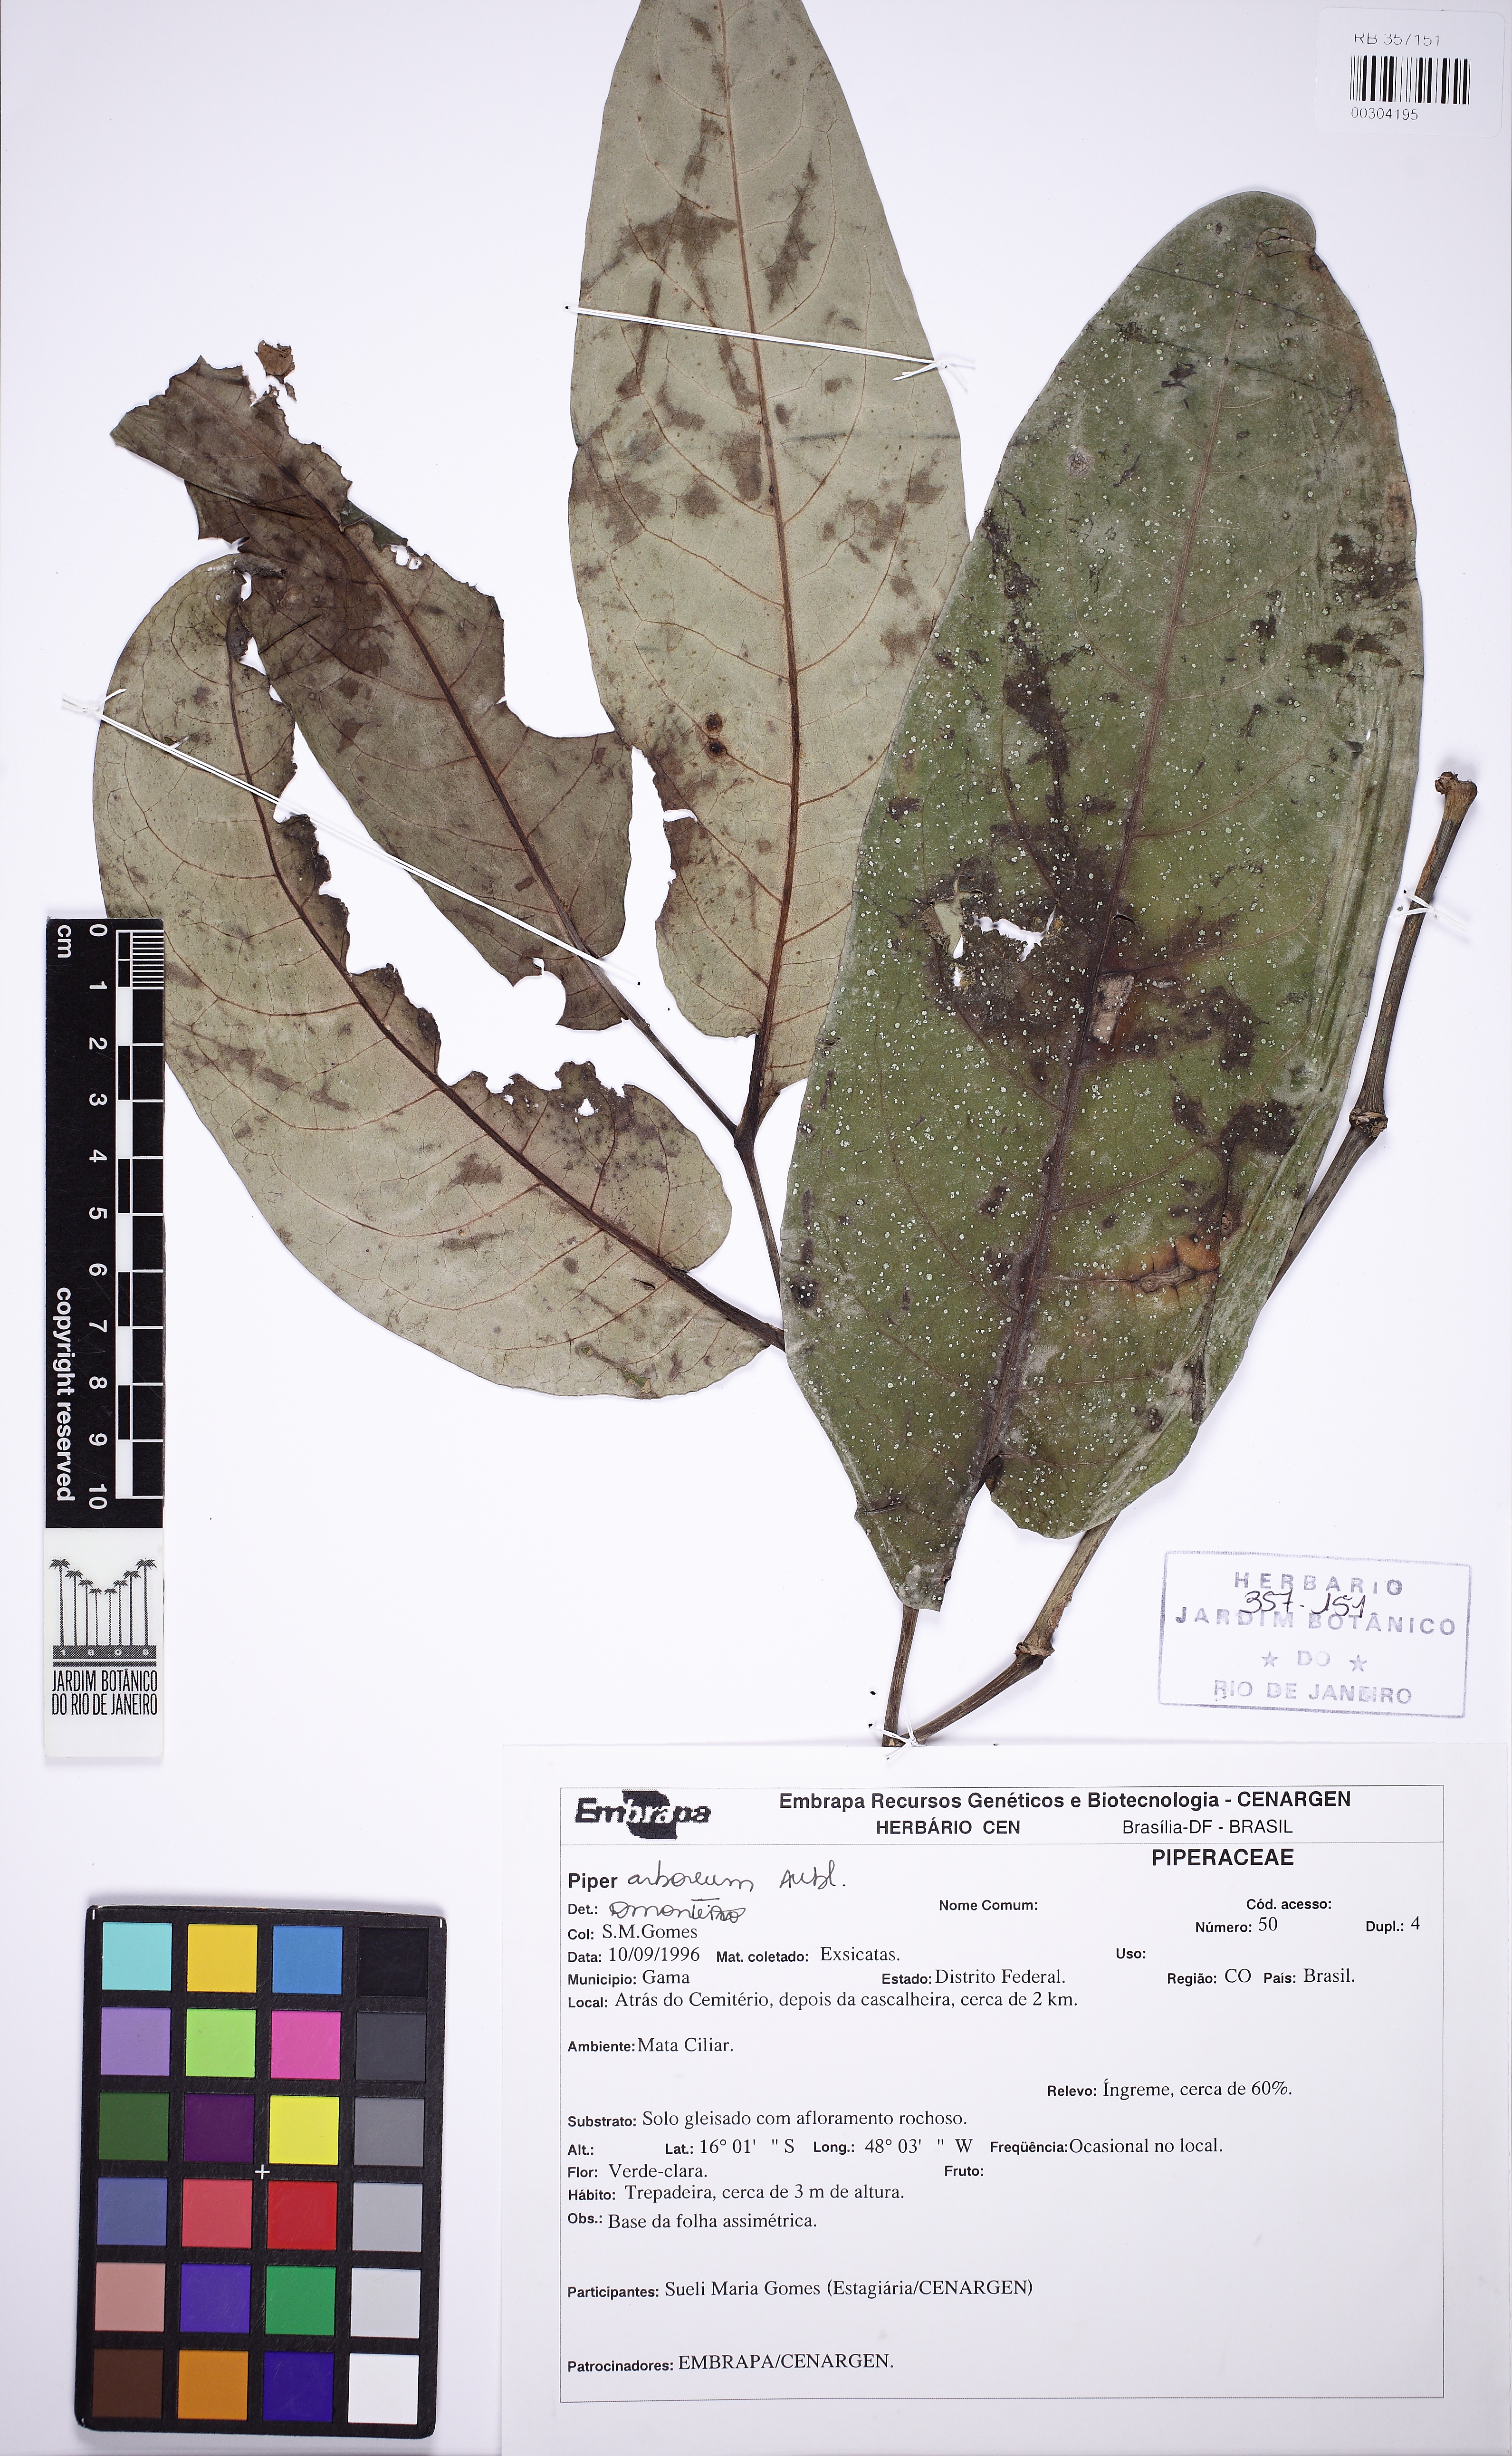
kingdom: Plantae
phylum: Tracheophyta
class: Magnoliopsida
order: Piperales
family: Piperaceae
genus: Piper
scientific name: Piper arboreum
